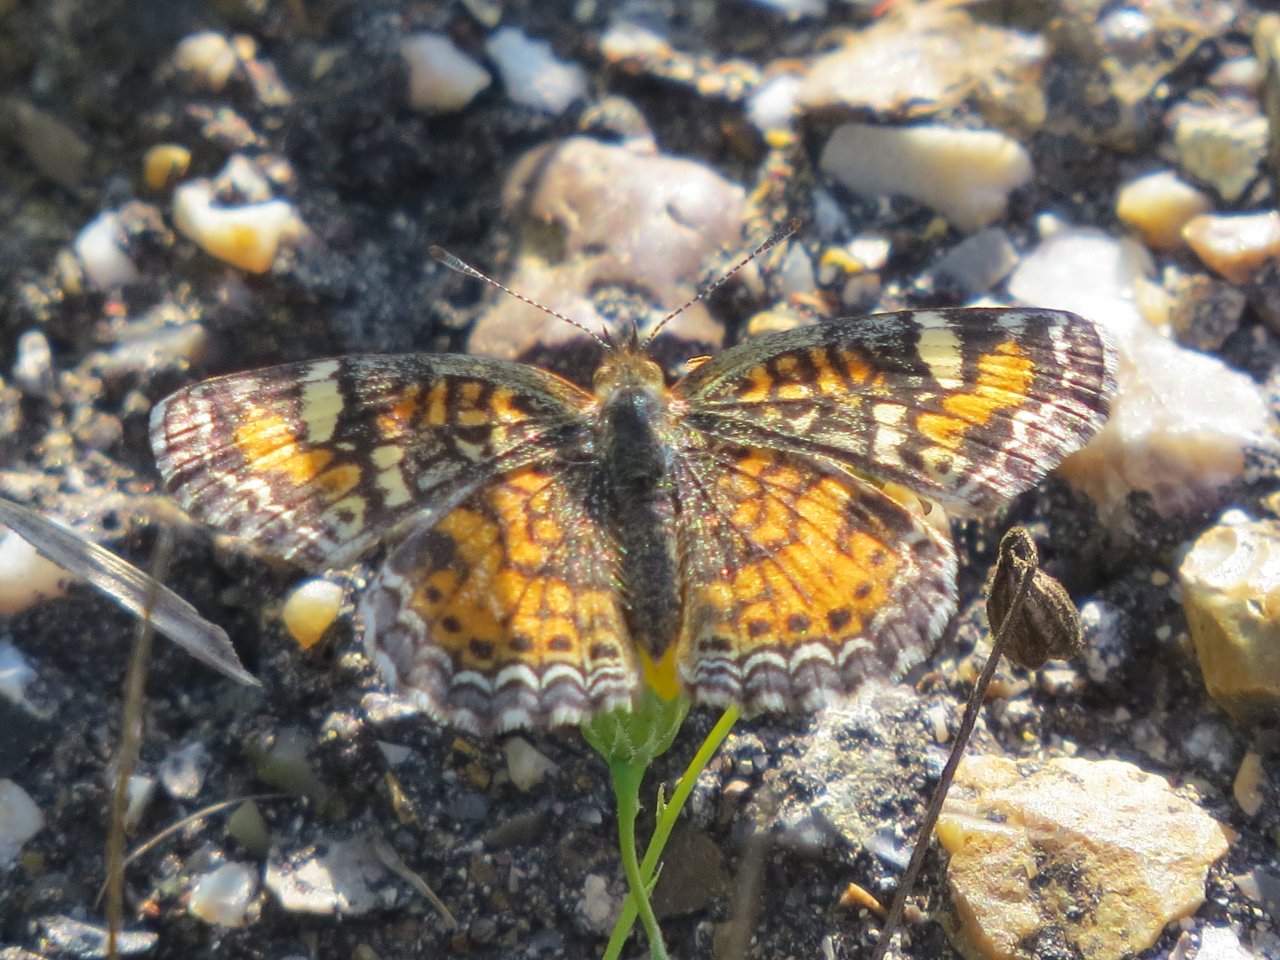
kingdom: Animalia
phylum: Arthropoda
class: Insecta
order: Lepidoptera
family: Nymphalidae
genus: Phyciodes
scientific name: Phyciodes phaon
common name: Phaon Crescent
